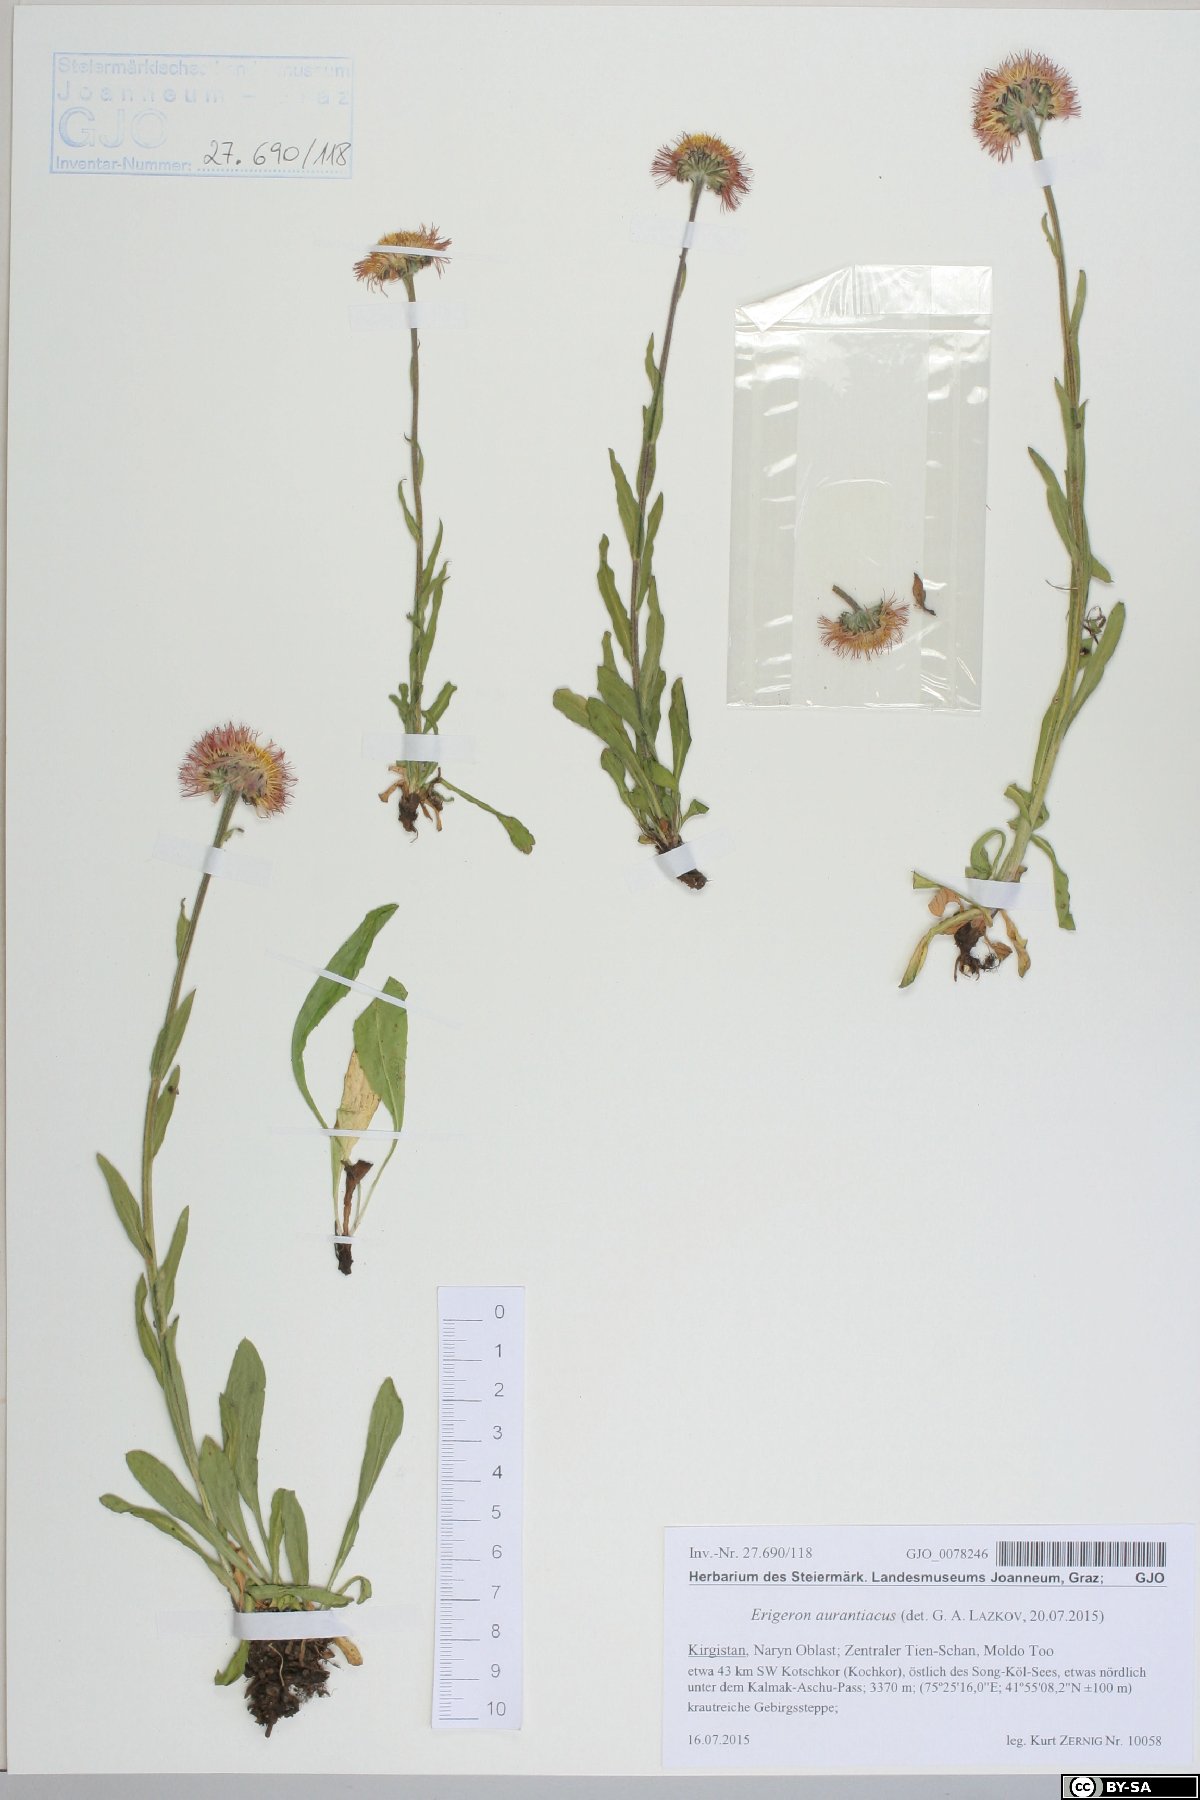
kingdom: Plantae
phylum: Tracheophyta
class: Magnoliopsida
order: Asterales
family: Asteraceae
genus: Erigeron
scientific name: Erigeron aurantiacus
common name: Orange daisy
